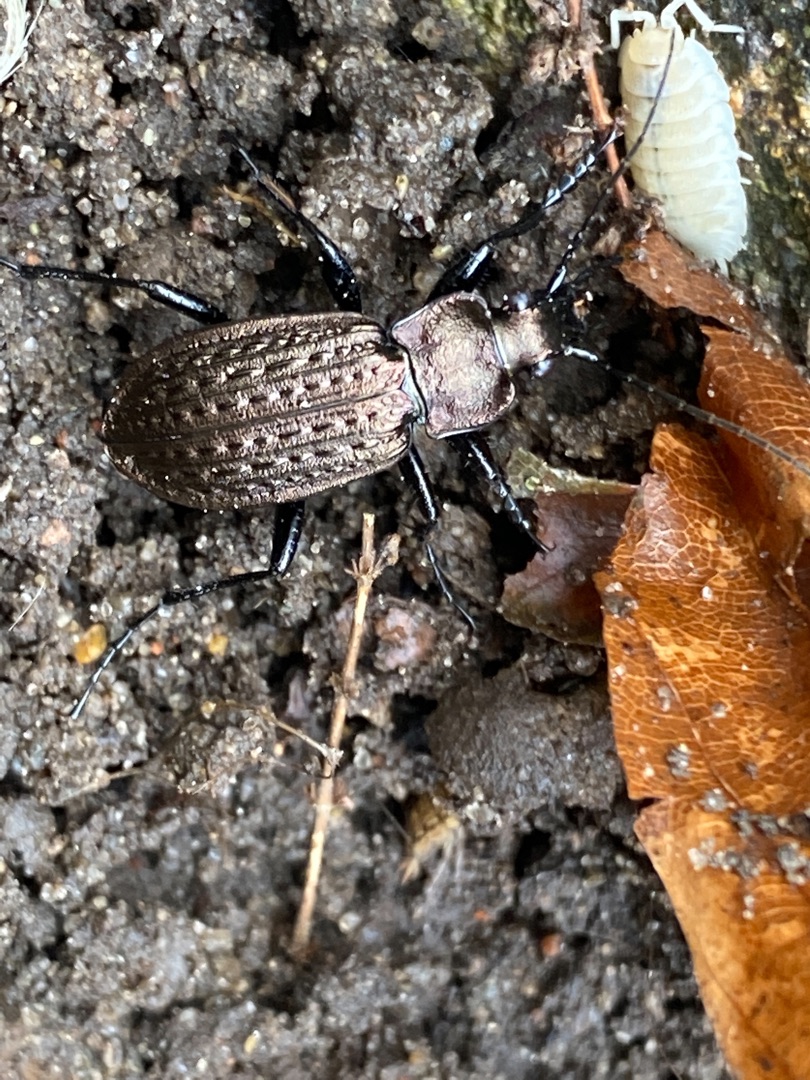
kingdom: Animalia
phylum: Arthropoda
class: Insecta
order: Coleoptera
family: Carabidae
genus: Carabus
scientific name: Carabus granulatus
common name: Kornet løber
